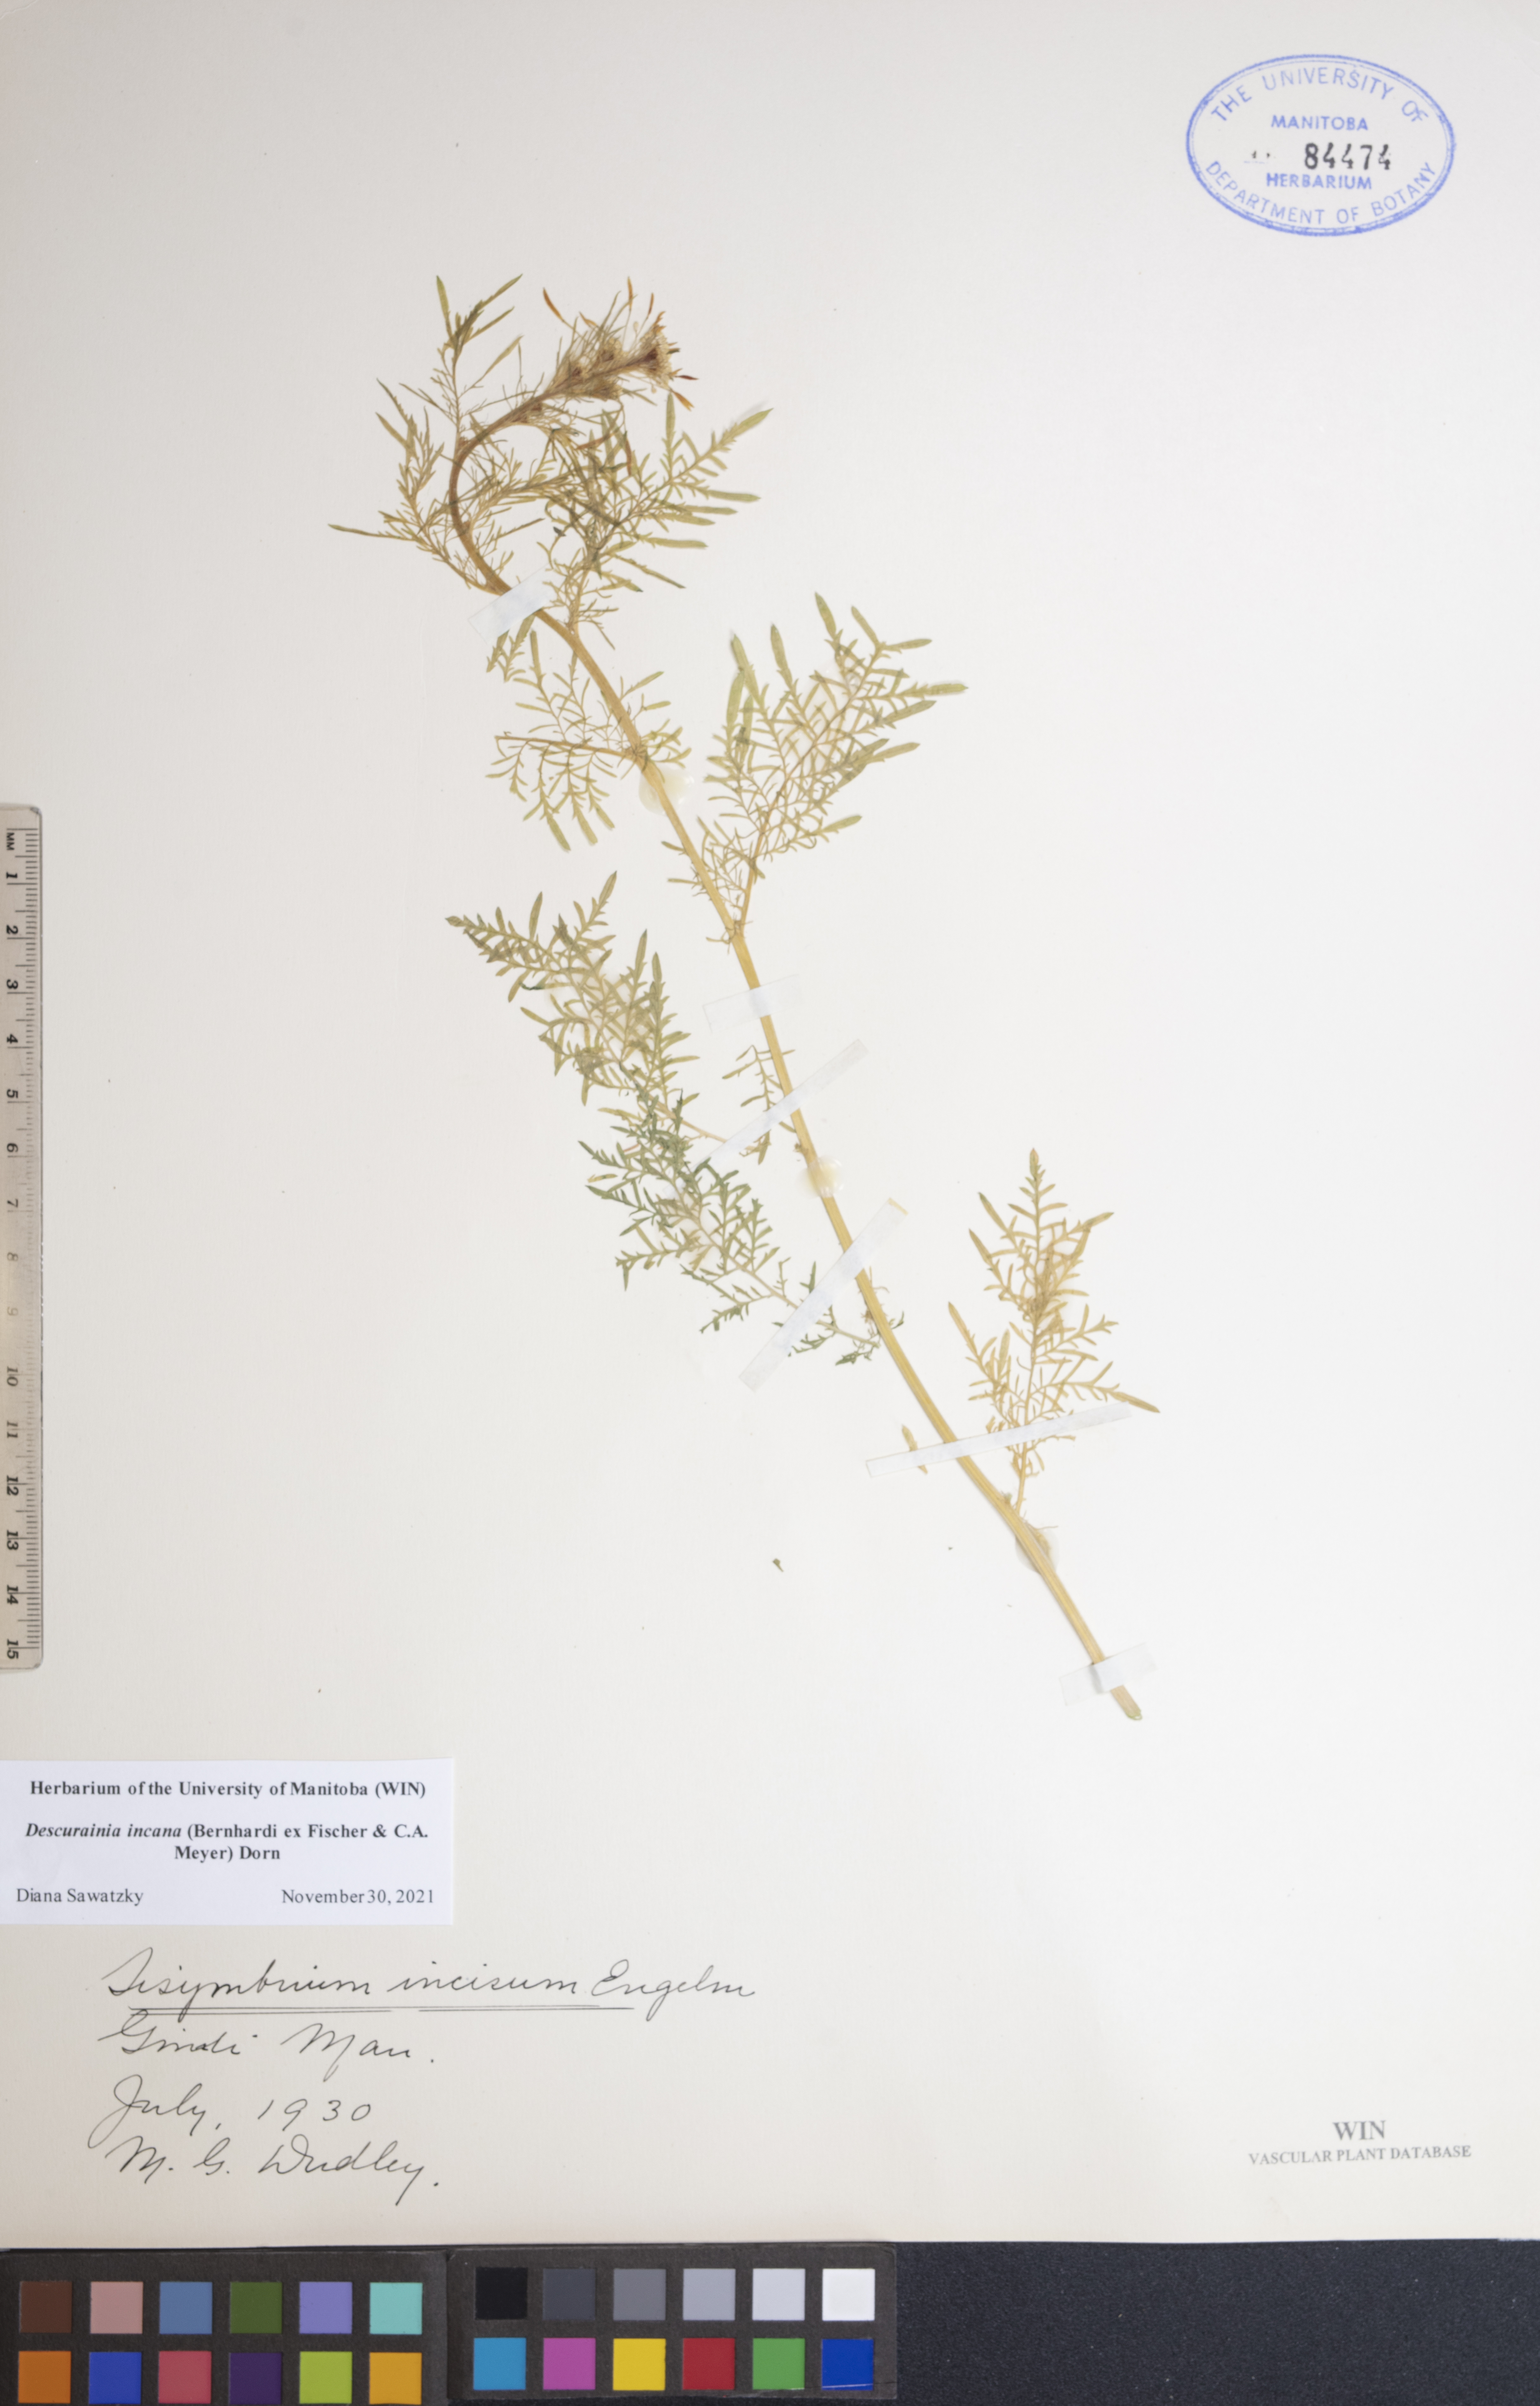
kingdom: Plantae
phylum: Tracheophyta
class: Magnoliopsida
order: Brassicales
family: Brassicaceae
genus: Descurainia
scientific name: Descurainia incana
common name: Gray tansy mustard
